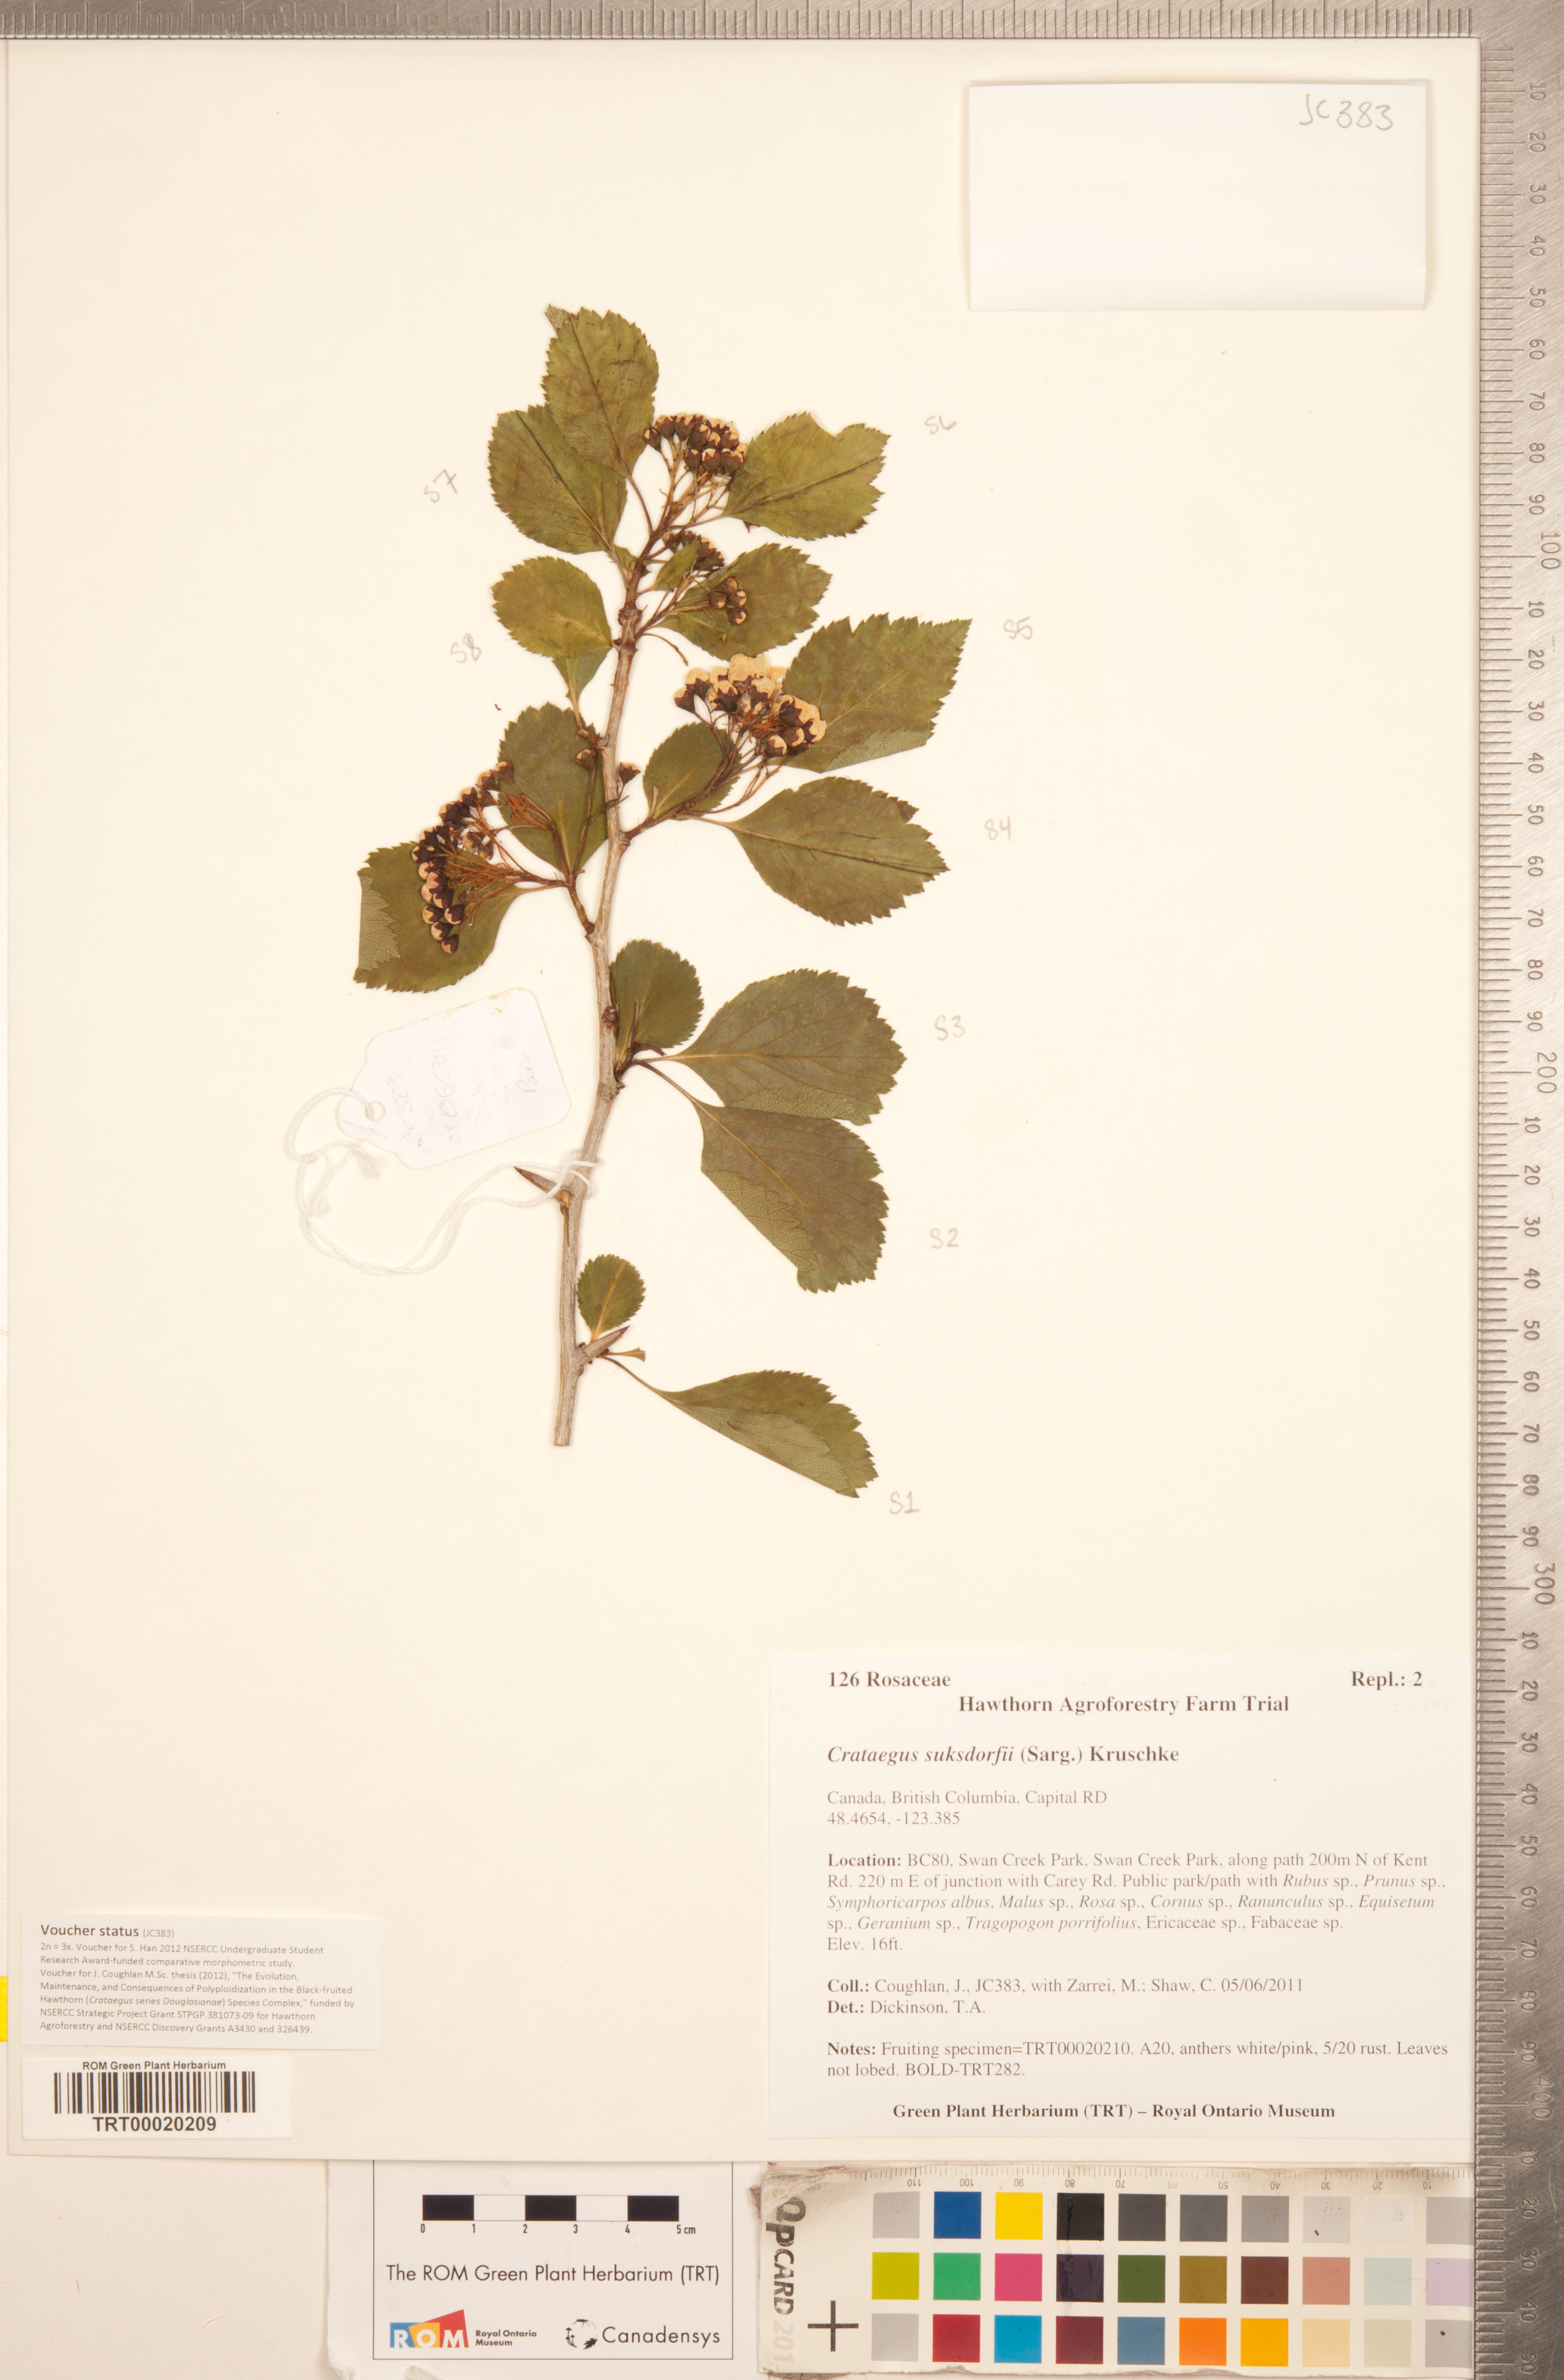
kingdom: Plantae
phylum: Tracheophyta
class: Magnoliopsida
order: Rosales
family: Rosaceae
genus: Crataegus
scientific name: Crataegus gaylussacia
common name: Huckleberry hawthorn
